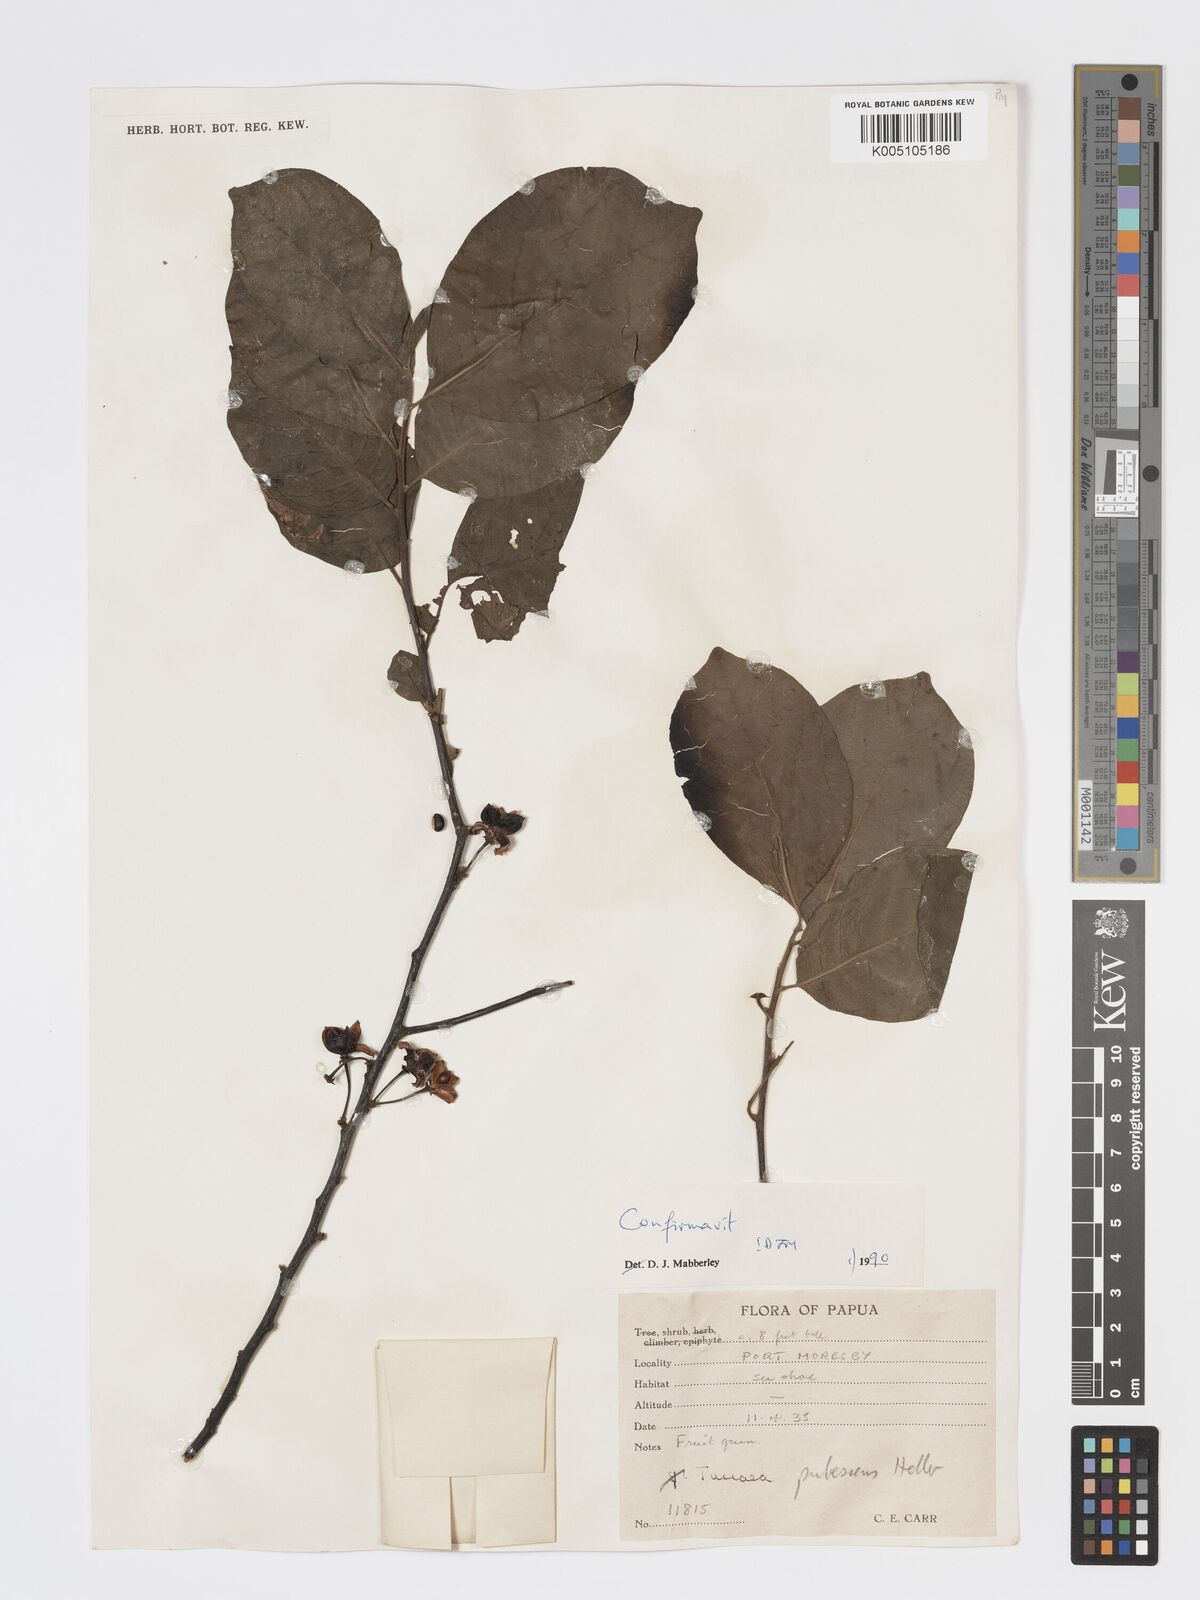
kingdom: Plantae
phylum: Tracheophyta
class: Magnoliopsida
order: Sapindales
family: Meliaceae
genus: Turraea
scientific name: Turraea
